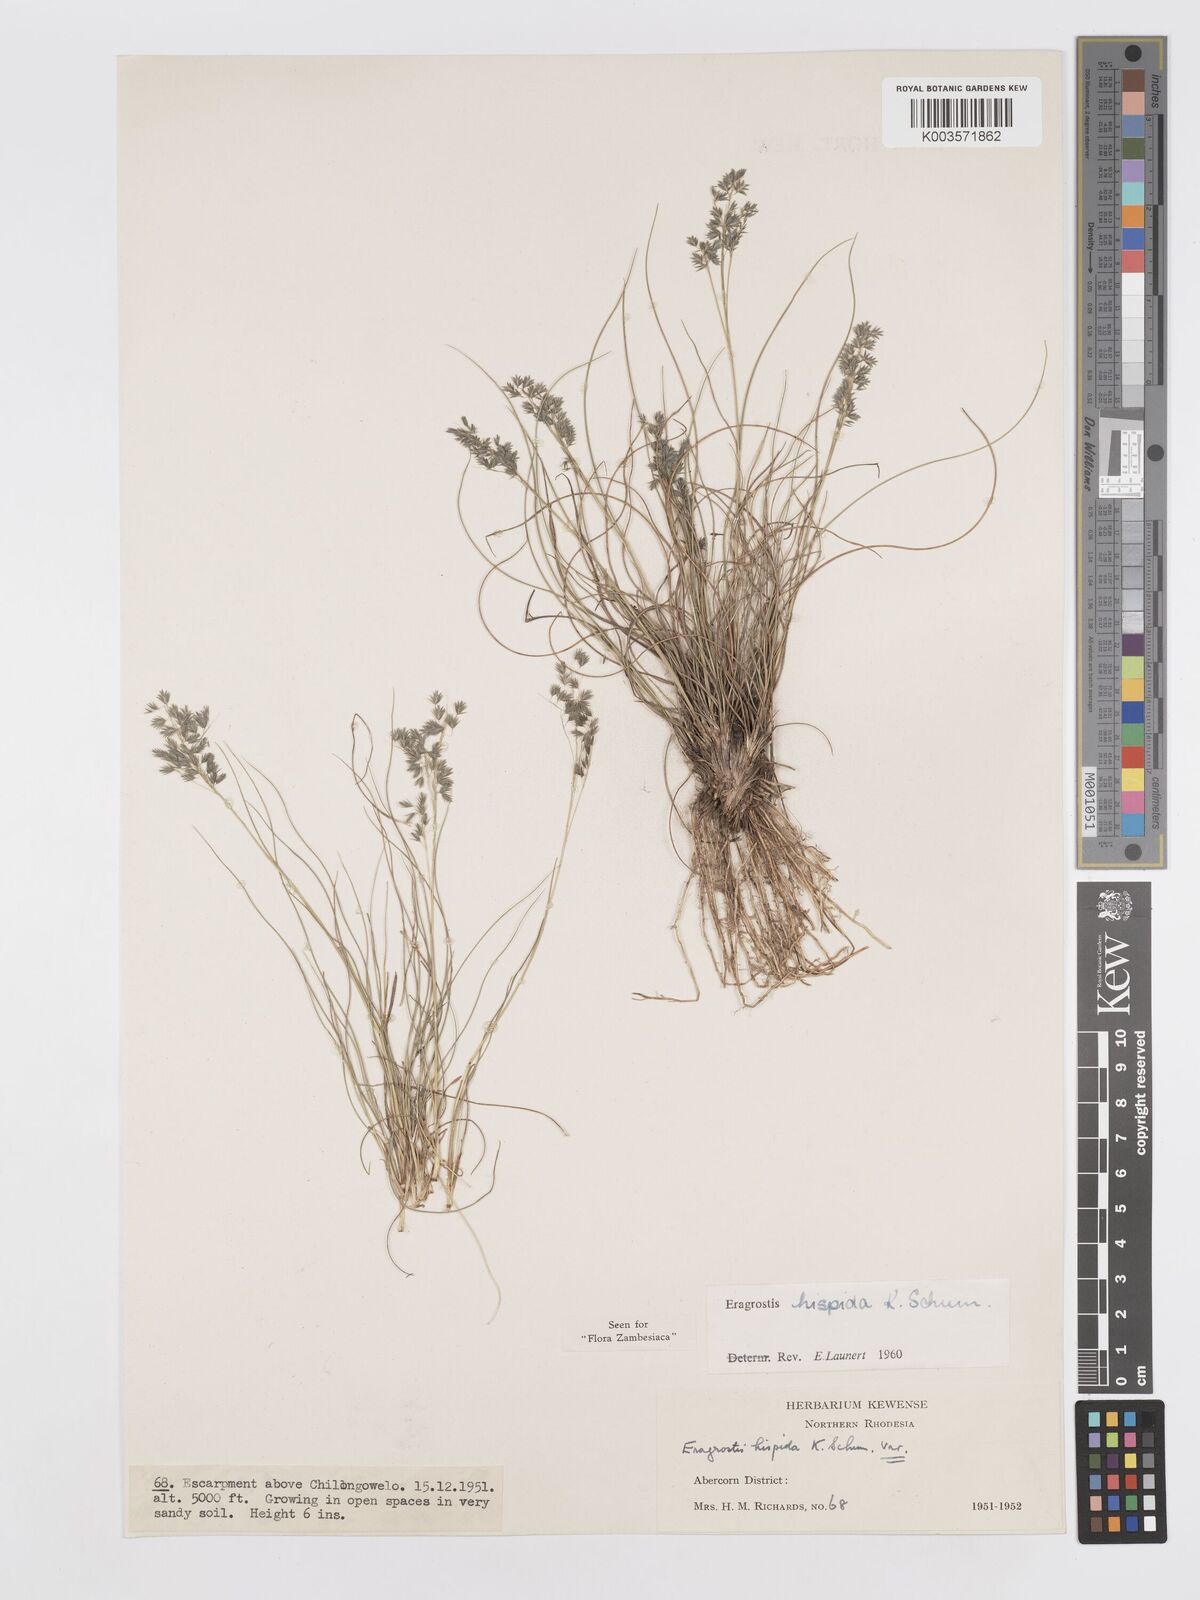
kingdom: Plantae
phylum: Tracheophyta
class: Liliopsida
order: Poales
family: Poaceae
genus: Eragrostis
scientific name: Eragrostis hispida
